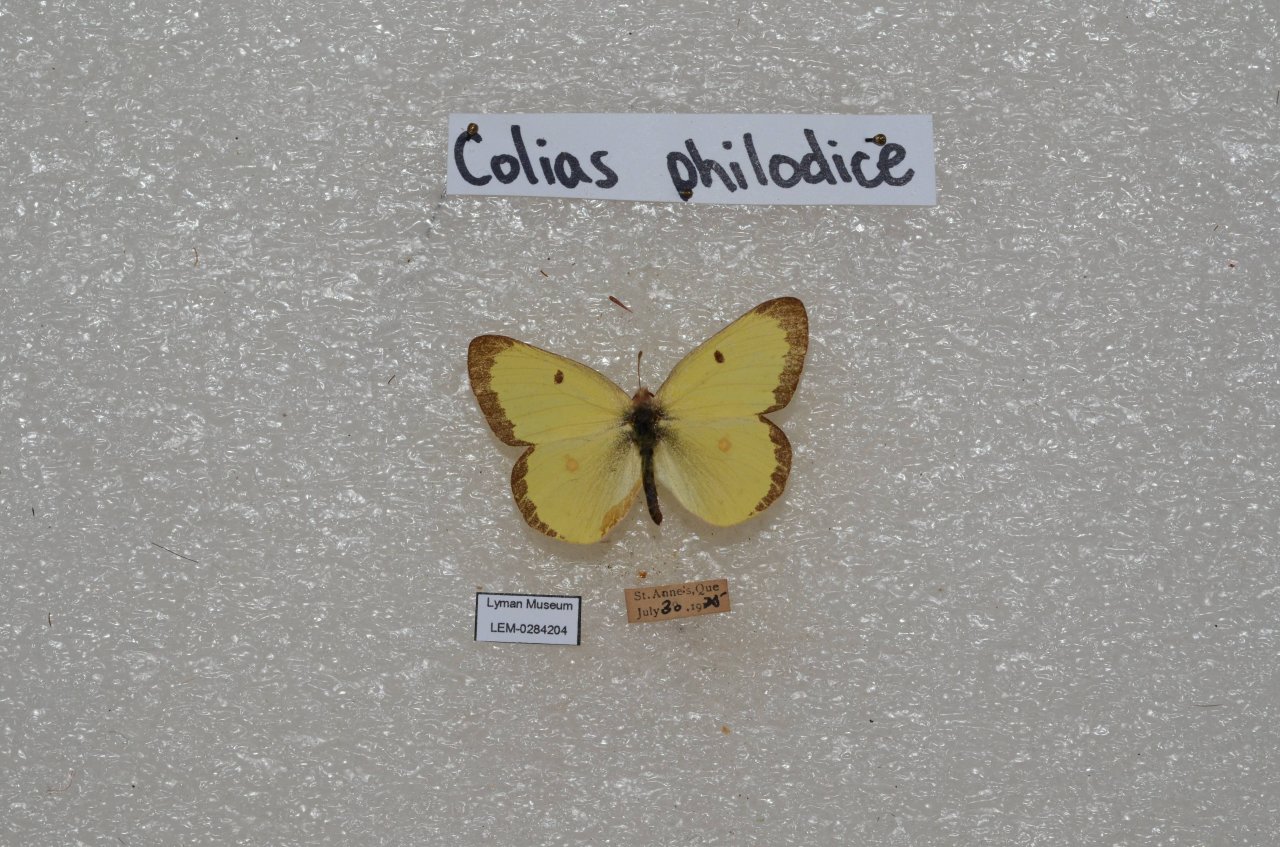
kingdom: Animalia
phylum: Arthropoda
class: Insecta
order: Lepidoptera
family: Pieridae
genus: Colias
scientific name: Colias philodice
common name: Clouded Sulphur
